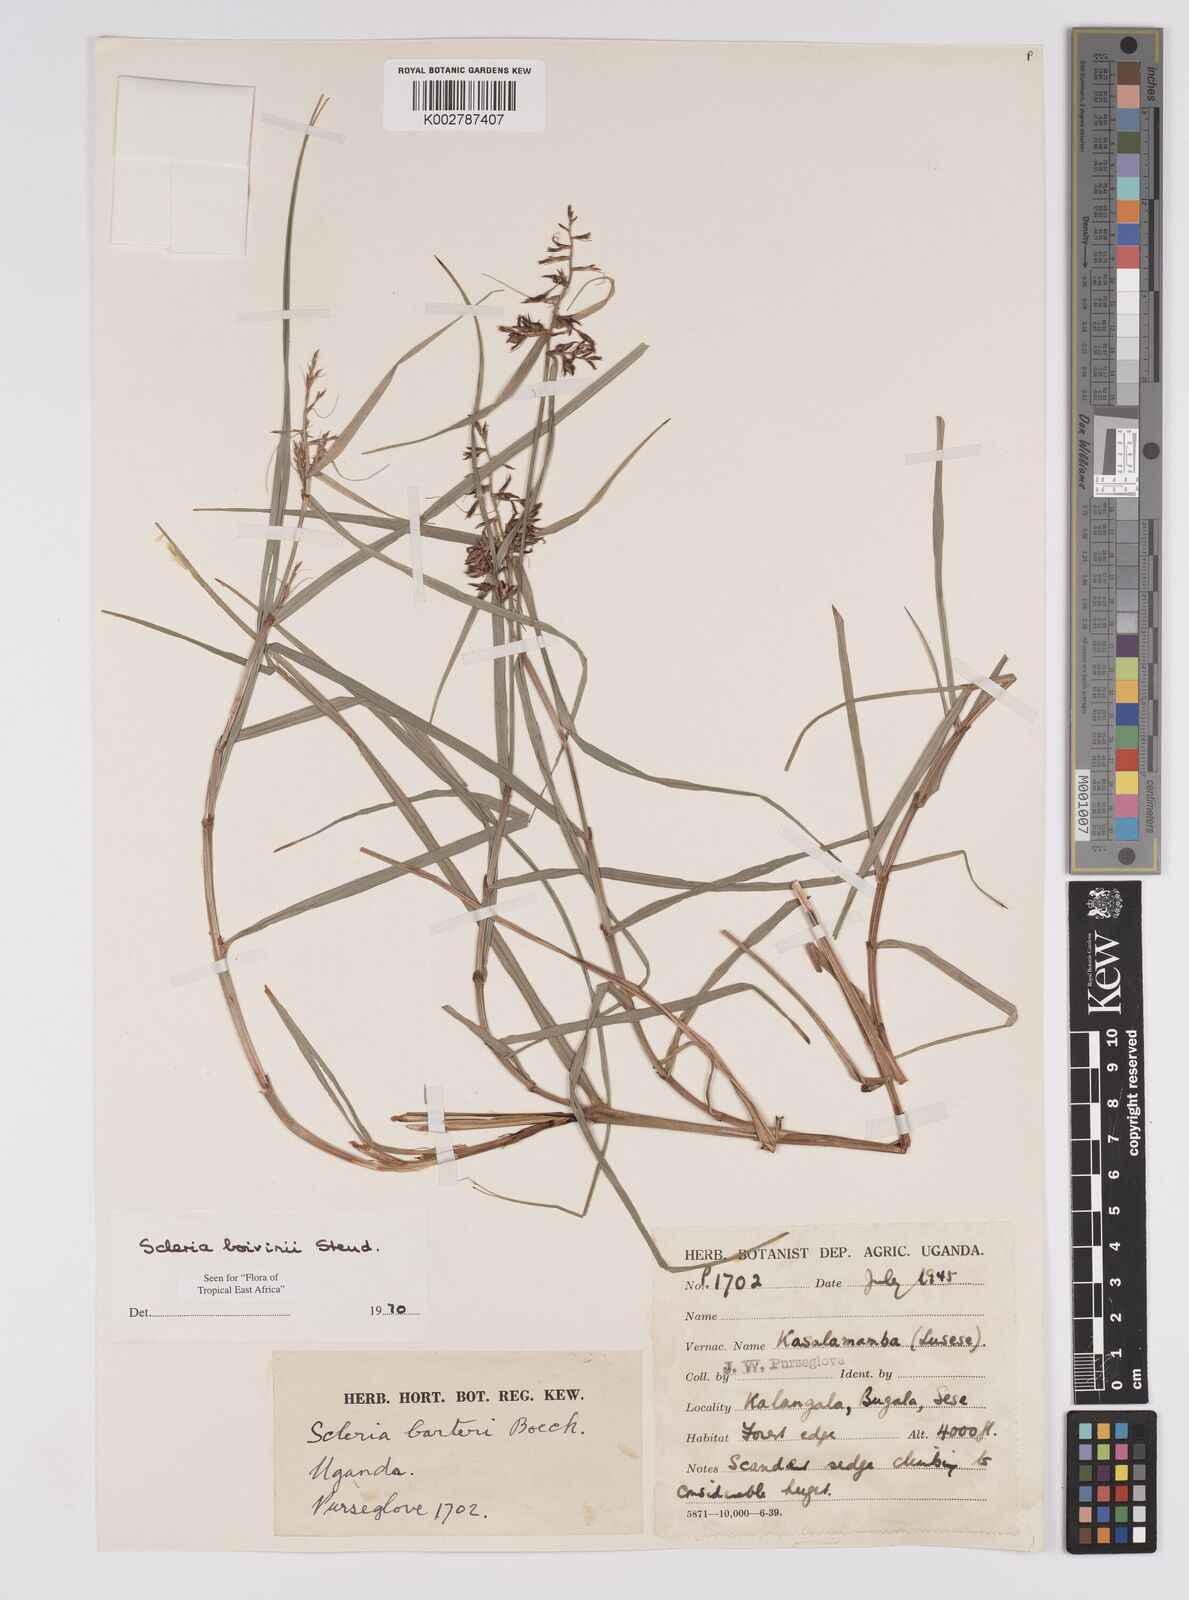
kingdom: Plantae
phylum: Tracheophyta
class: Liliopsida
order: Poales
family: Cyperaceae
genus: Scleria
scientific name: Scleria boivinii
